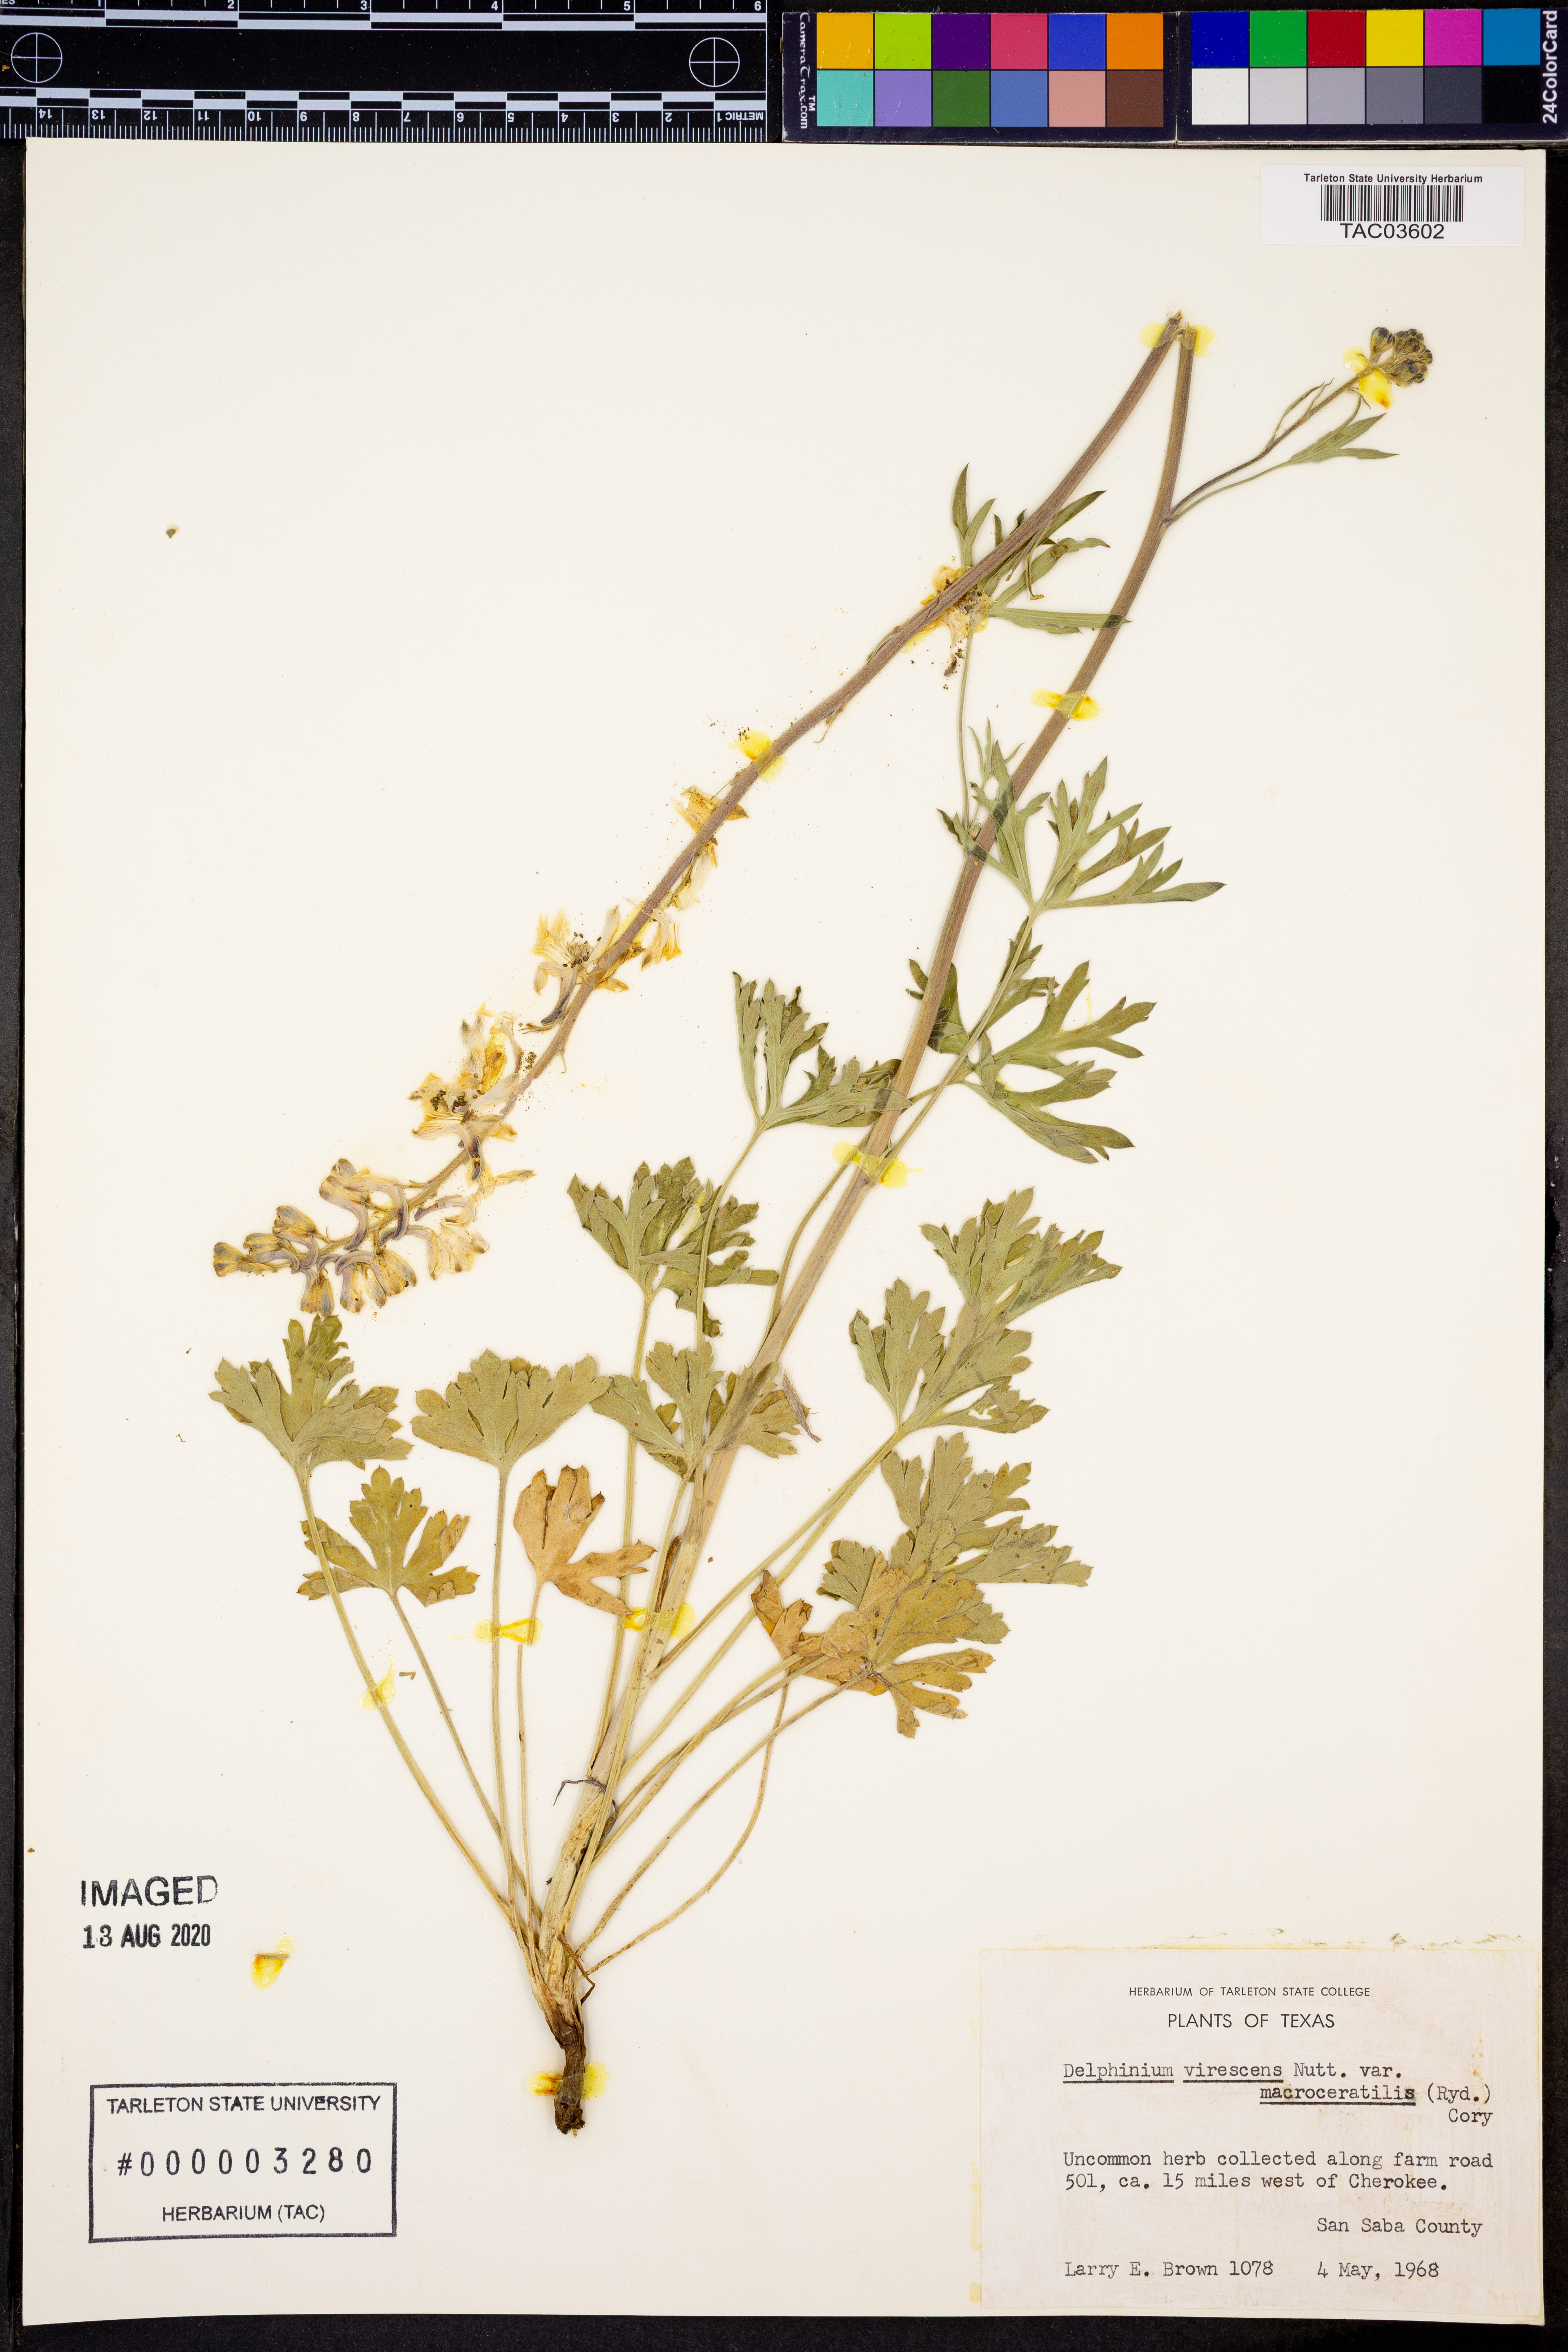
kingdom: Plantae
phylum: Tracheophyta
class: Magnoliopsida
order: Ranunculales
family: Ranunculaceae
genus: Delphinium
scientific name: Delphinium carolinianum
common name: Carolina larkspur
